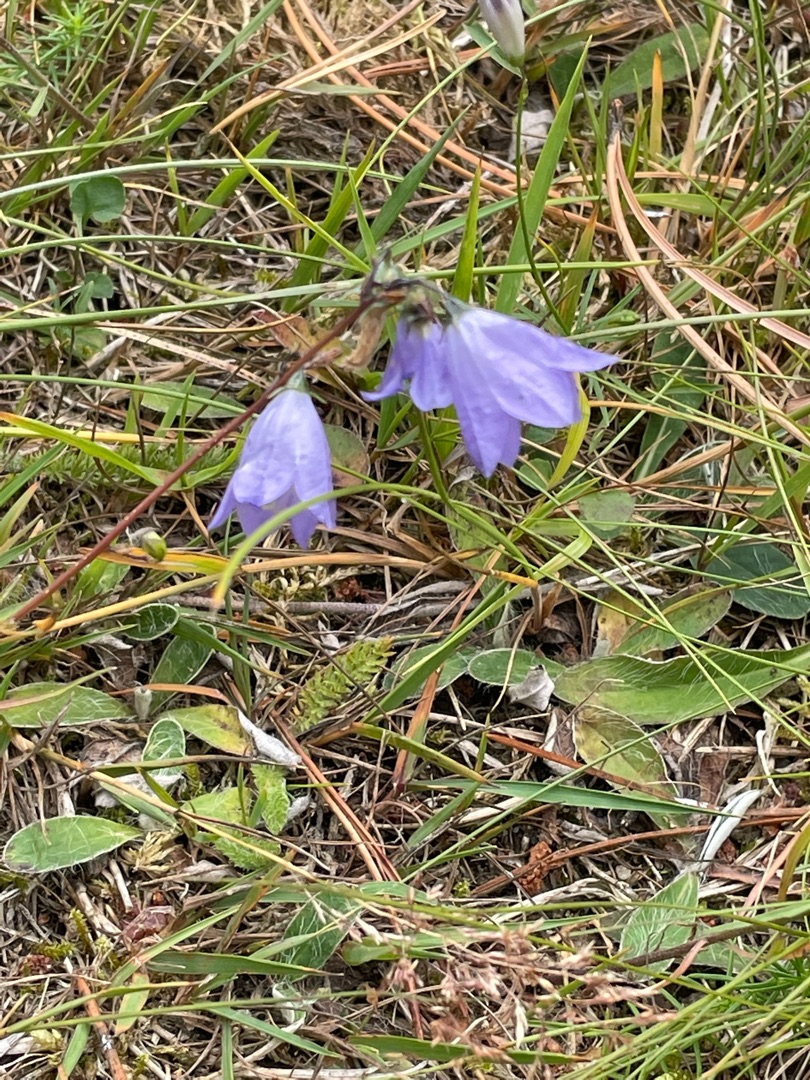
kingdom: Plantae
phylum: Tracheophyta
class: Magnoliopsida
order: Asterales
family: Campanulaceae
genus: Campanula
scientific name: Campanula rotundifolia
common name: Liden klokke
